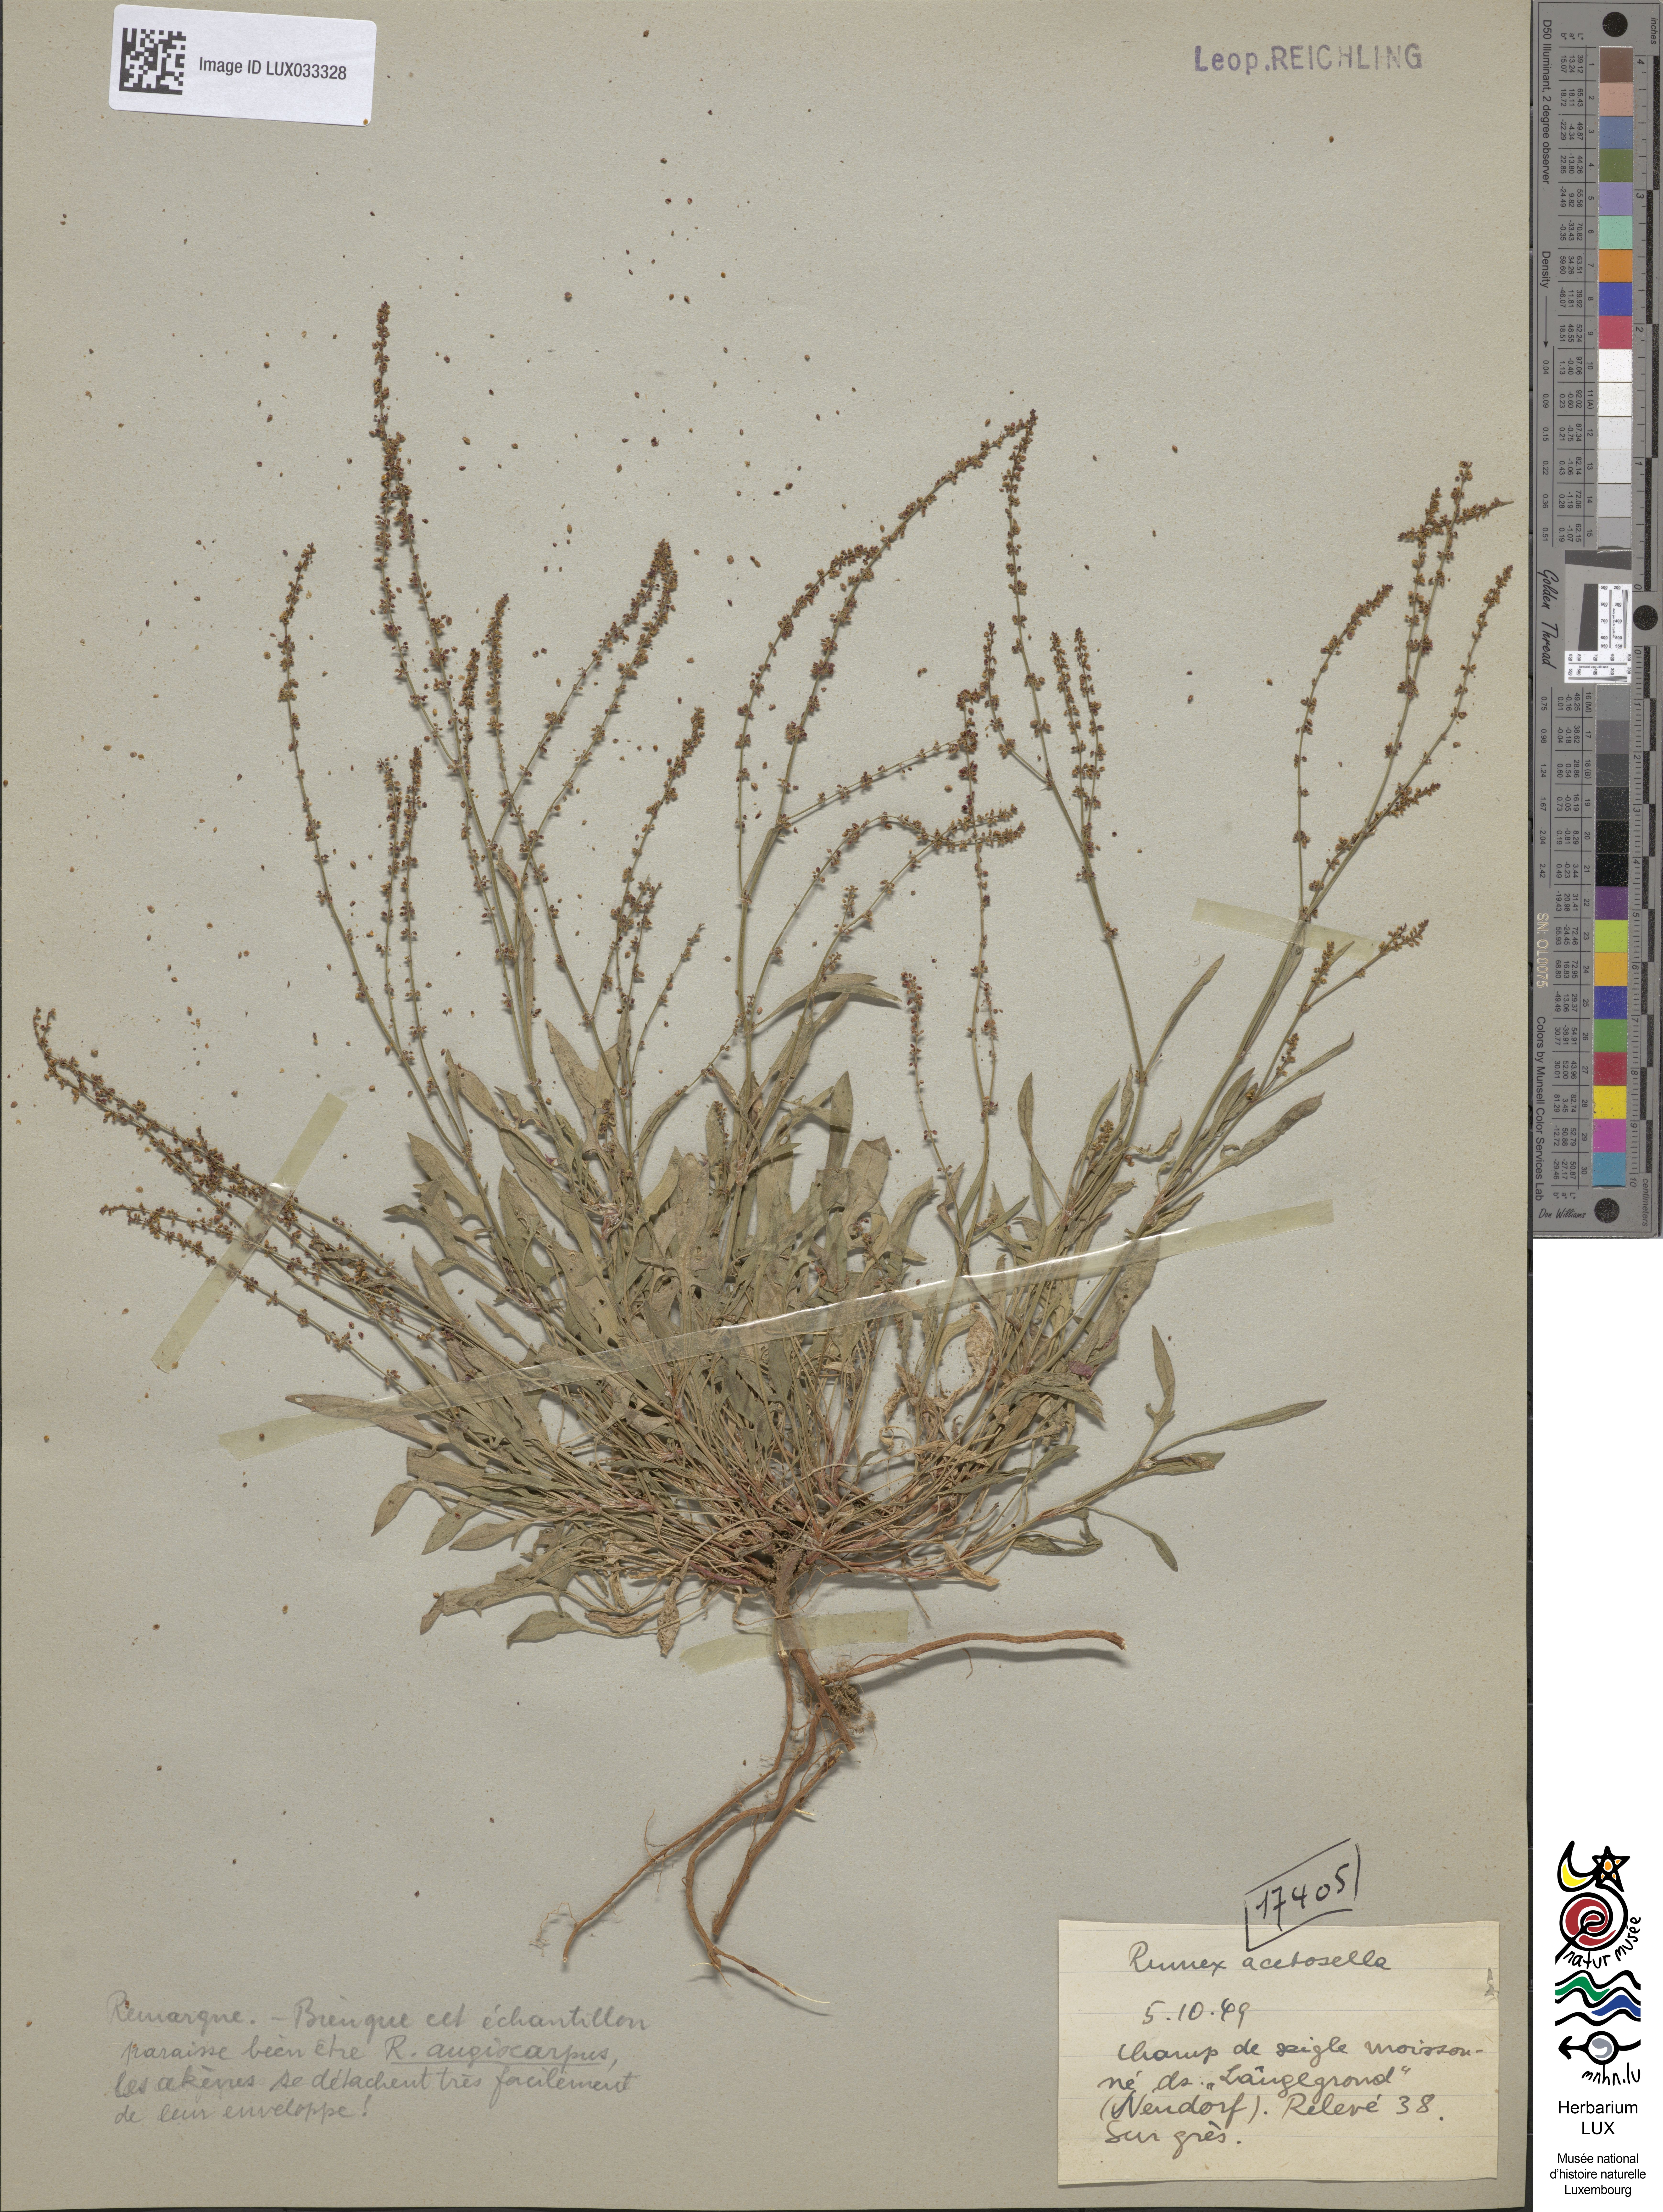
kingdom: Plantae
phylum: Tracheophyta
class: Magnoliopsida
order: Caryophyllales
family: Polygonaceae
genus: Rumex
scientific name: Rumex acetosella
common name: Common sheep sorrel
